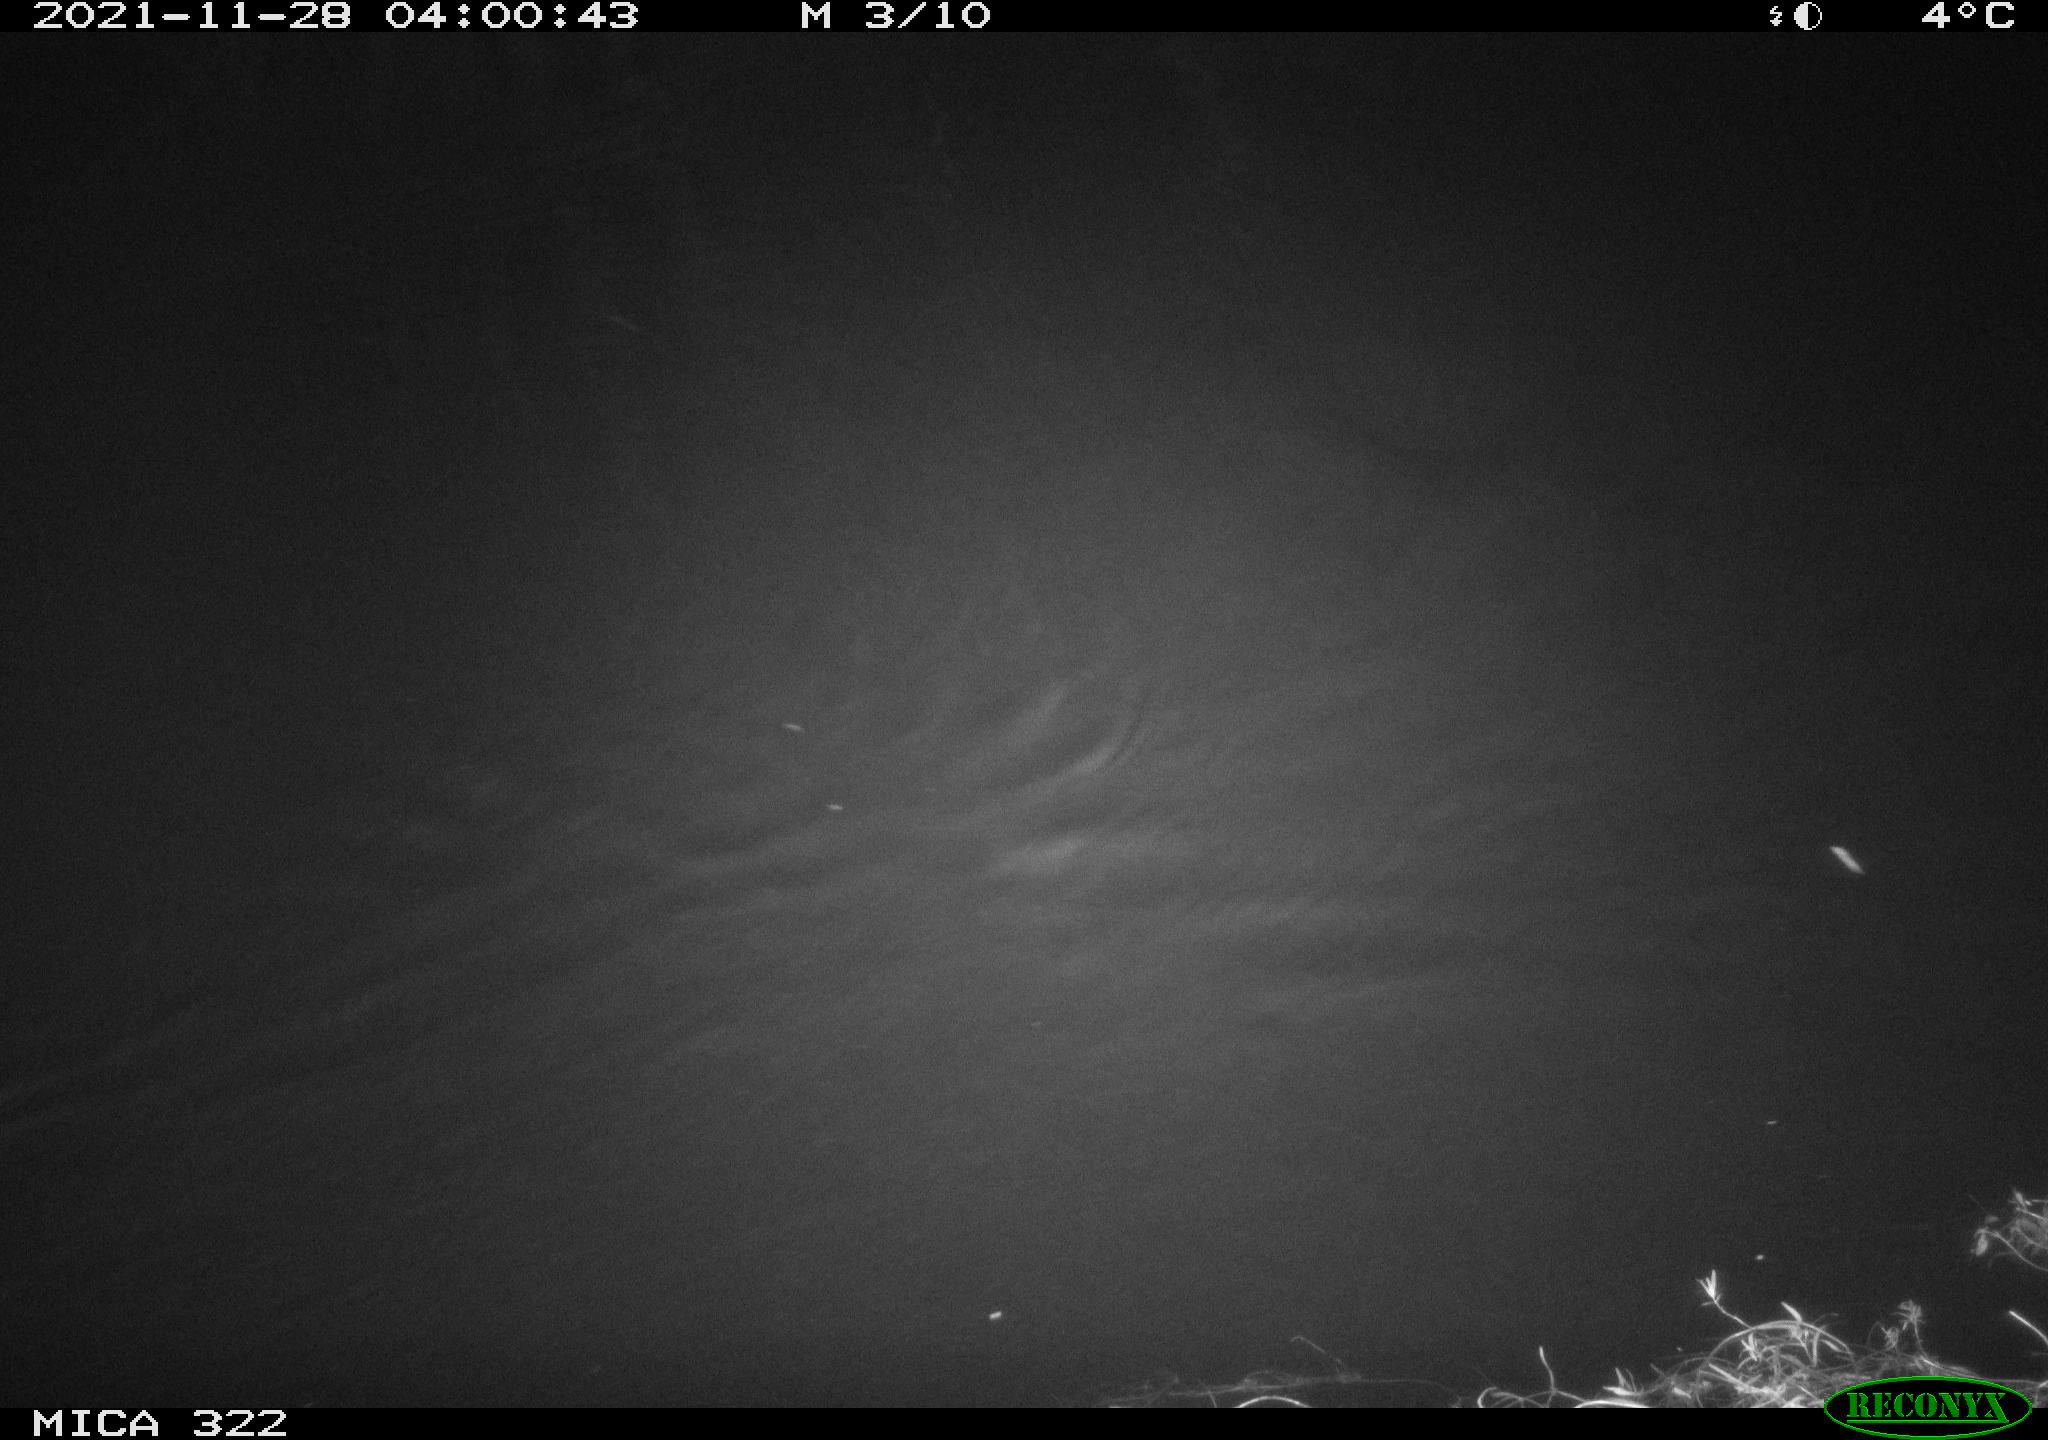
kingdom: Animalia
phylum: Chordata
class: Mammalia
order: Rodentia
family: Muridae
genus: Rattus
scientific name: Rattus norvegicus
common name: Brown rat
